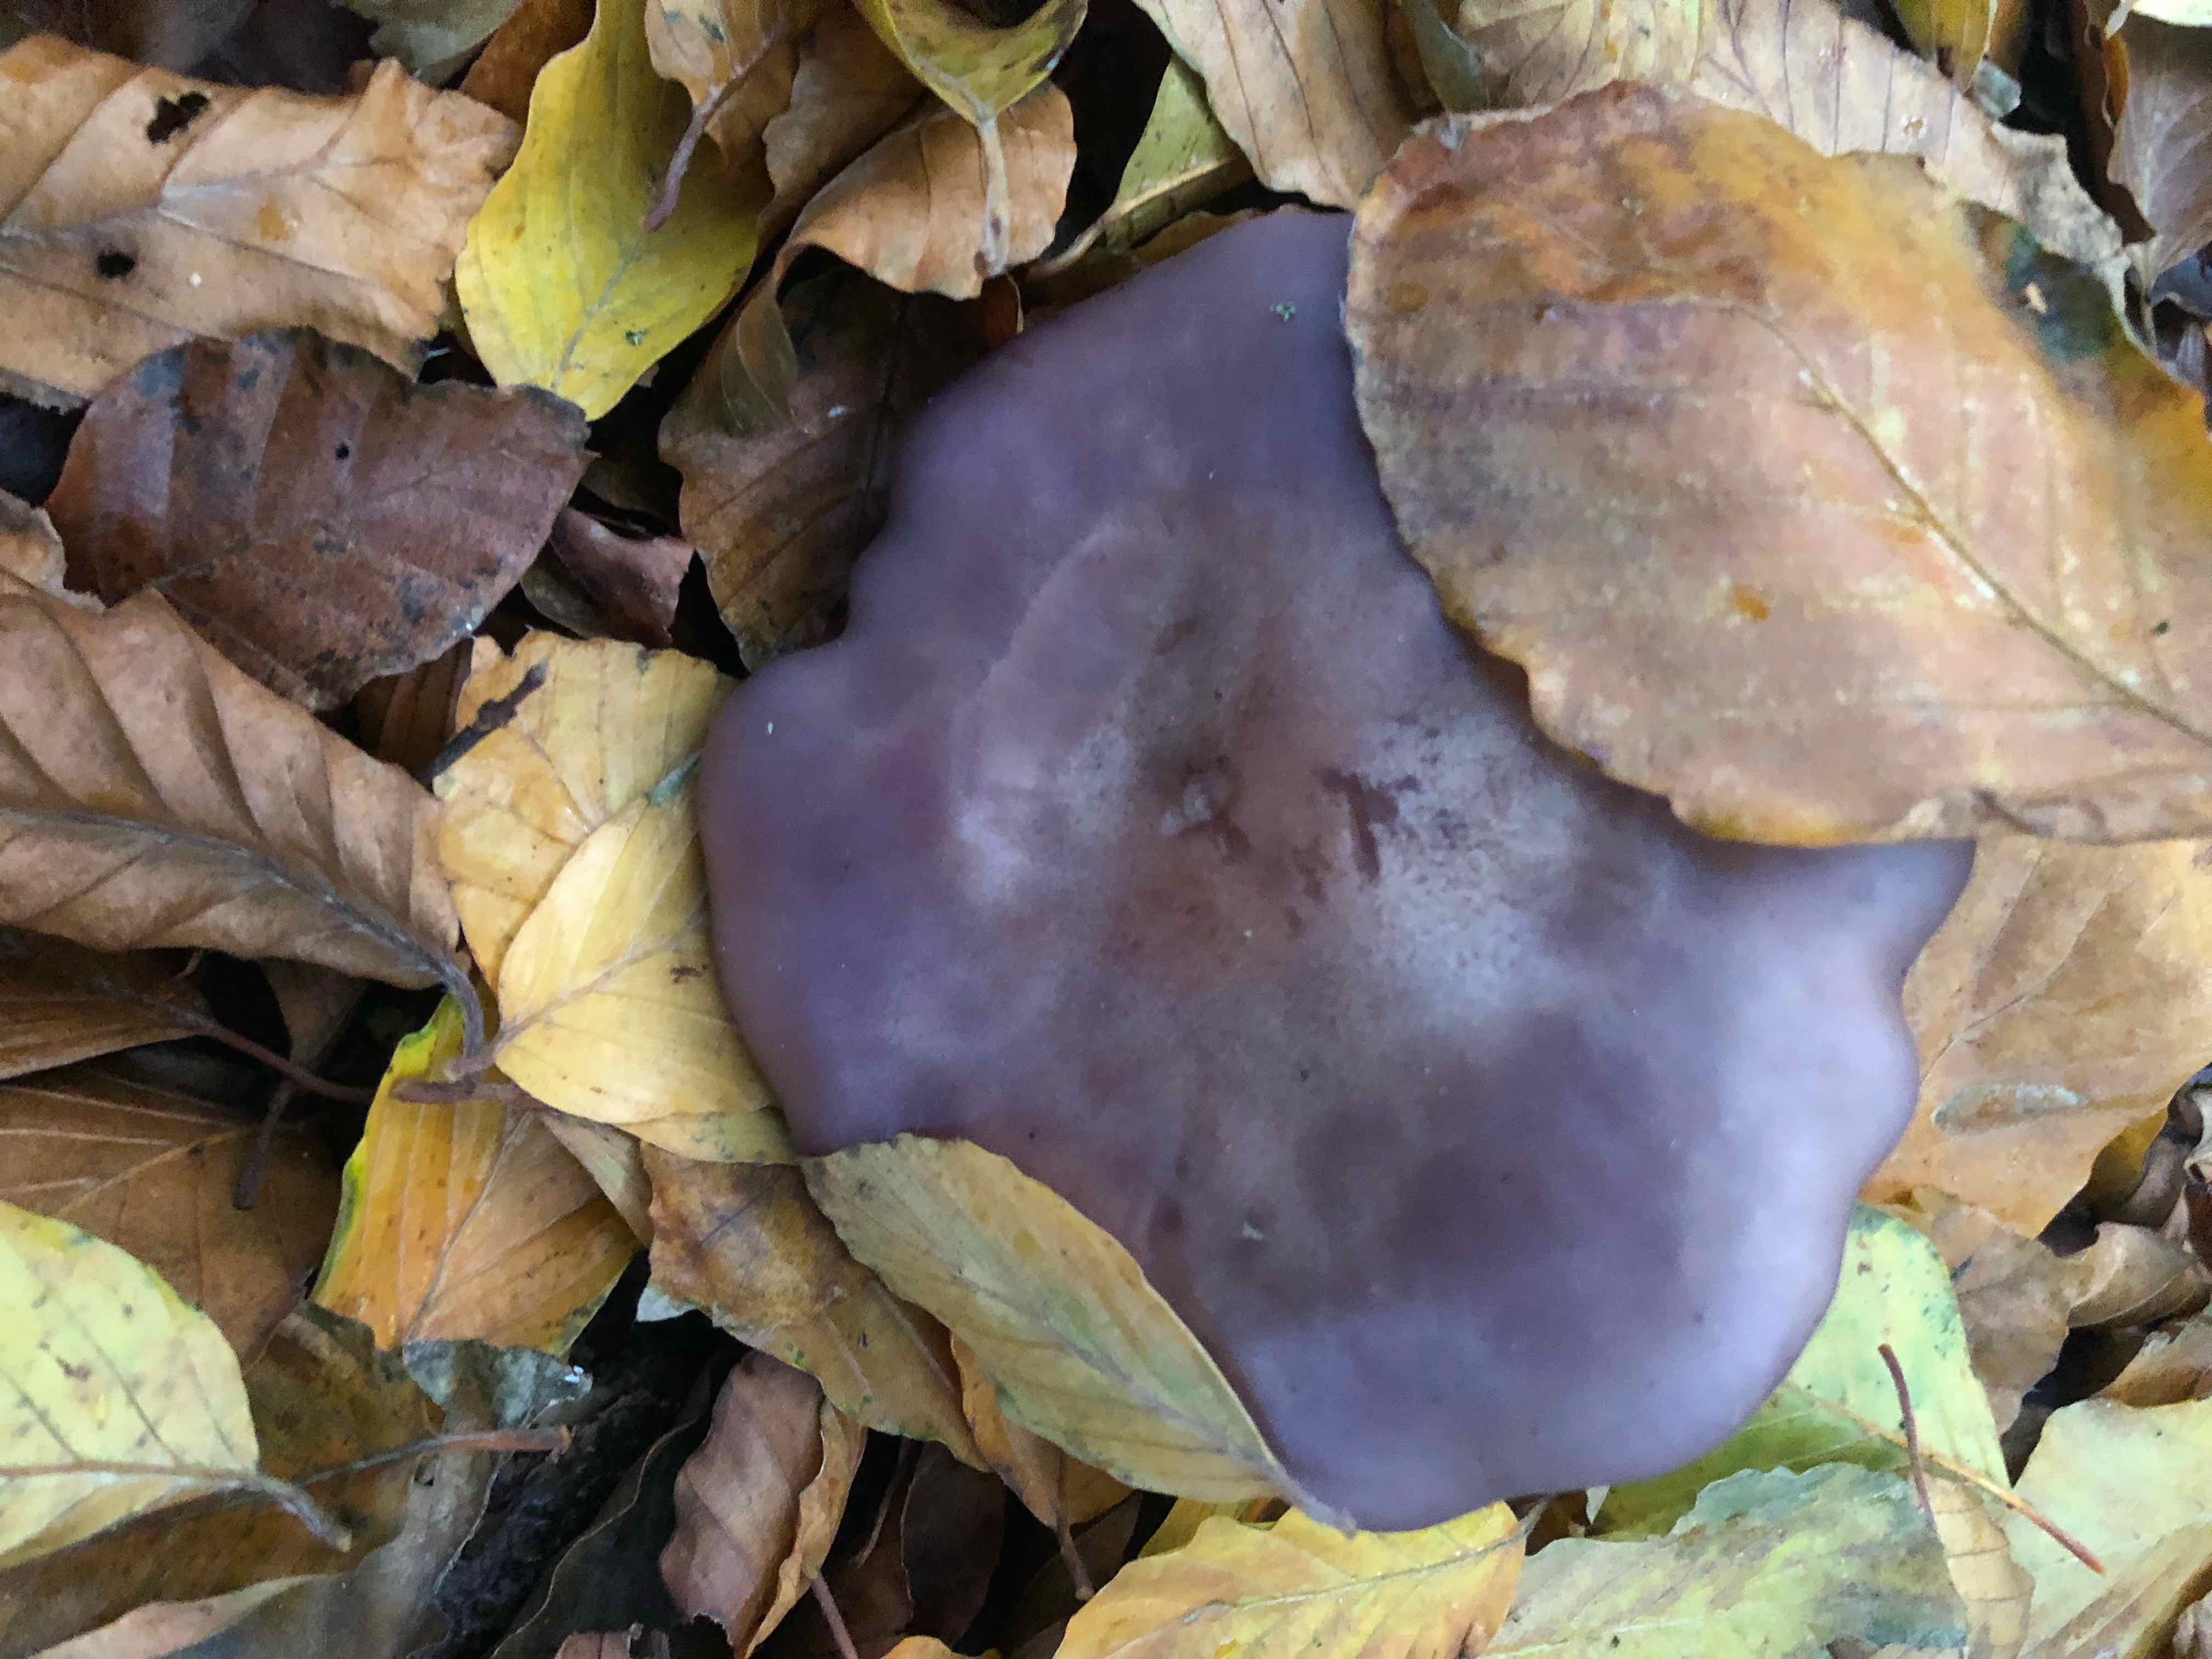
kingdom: Fungi
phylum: Basidiomycota
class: Agaricomycetes
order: Agaricales
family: Tricholomataceae
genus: Lepista
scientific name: Lepista nuda
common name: violet hekseringshat
